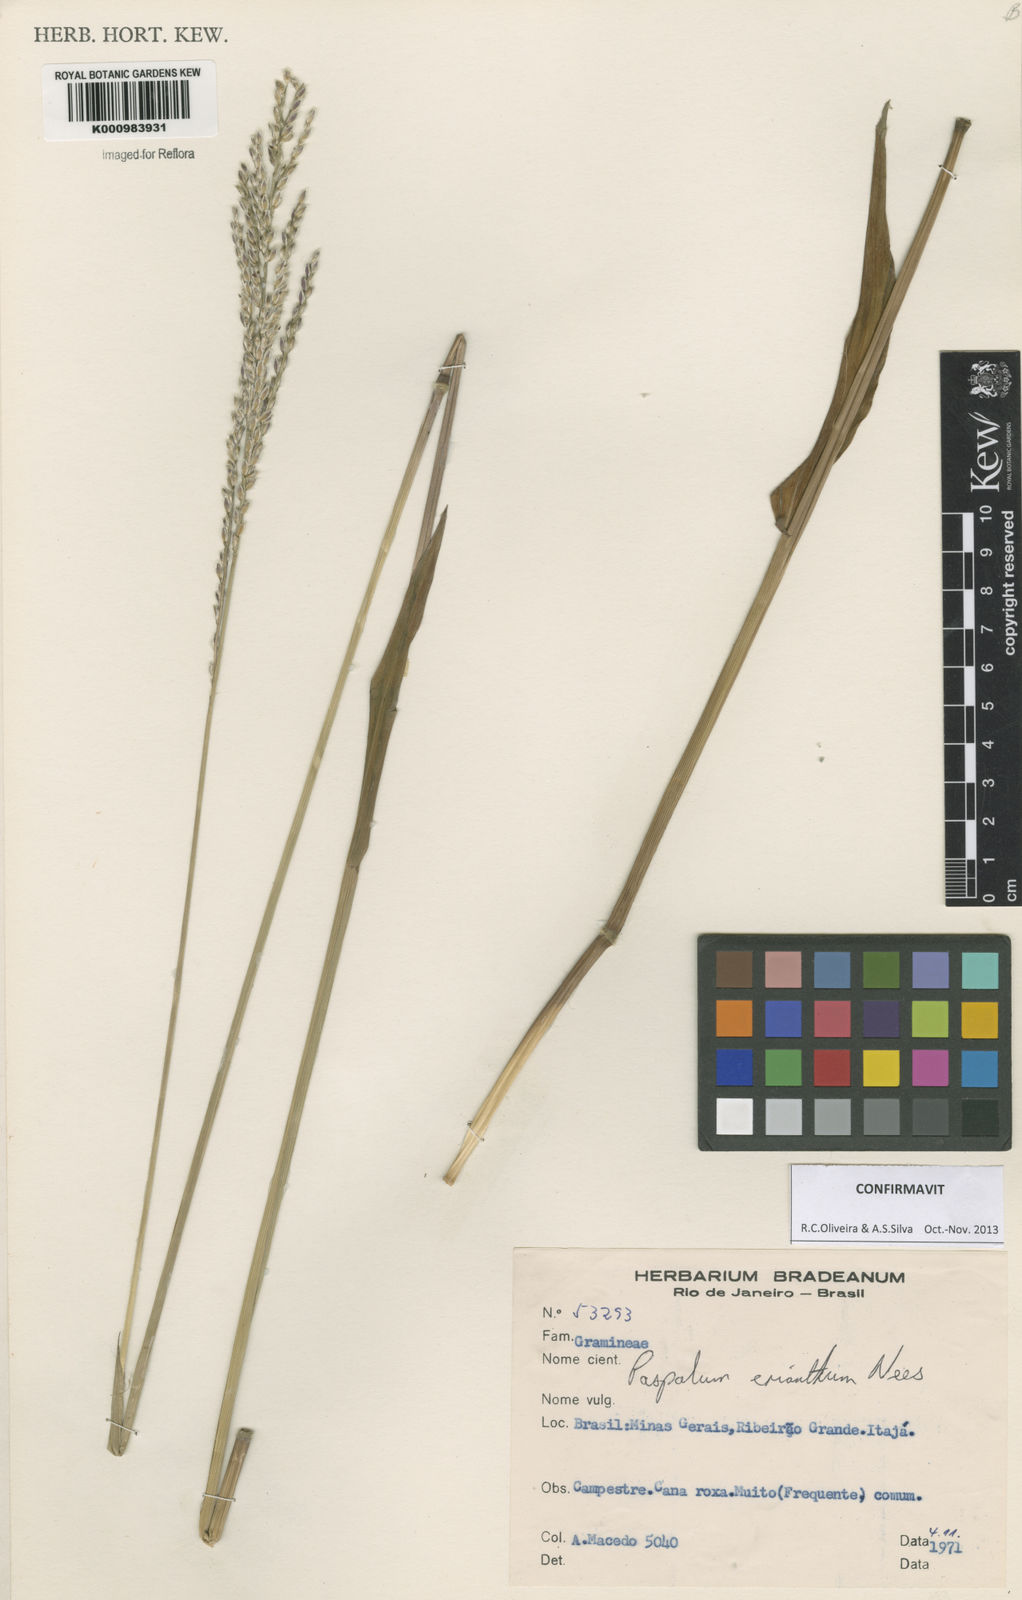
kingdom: Plantae
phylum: Tracheophyta
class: Liliopsida
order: Poales
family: Poaceae
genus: Paspalum
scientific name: Paspalum erianthum
